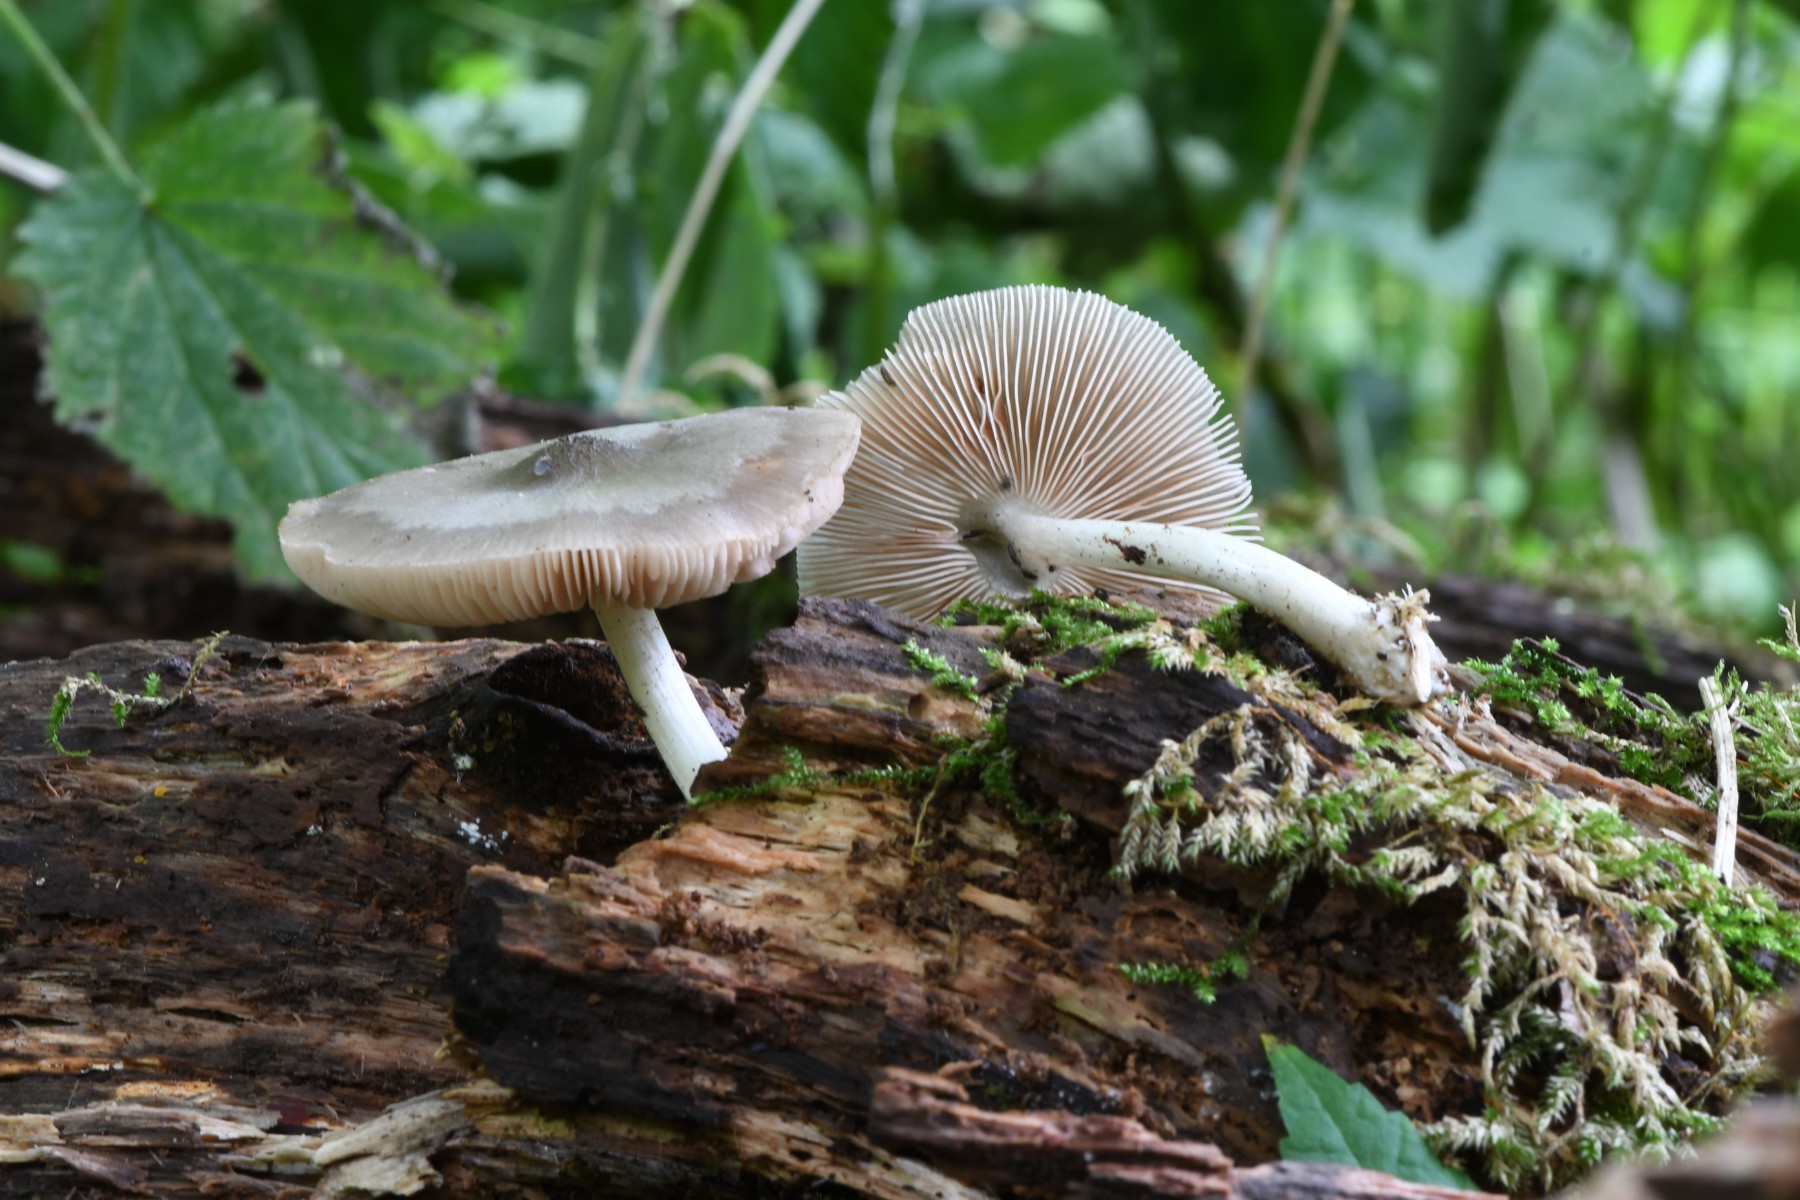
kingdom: Fungi
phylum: Basidiomycota
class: Agaricomycetes
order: Agaricales
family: Pluteaceae
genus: Pluteus
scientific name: Pluteus salicinus
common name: stiv skærmhat
